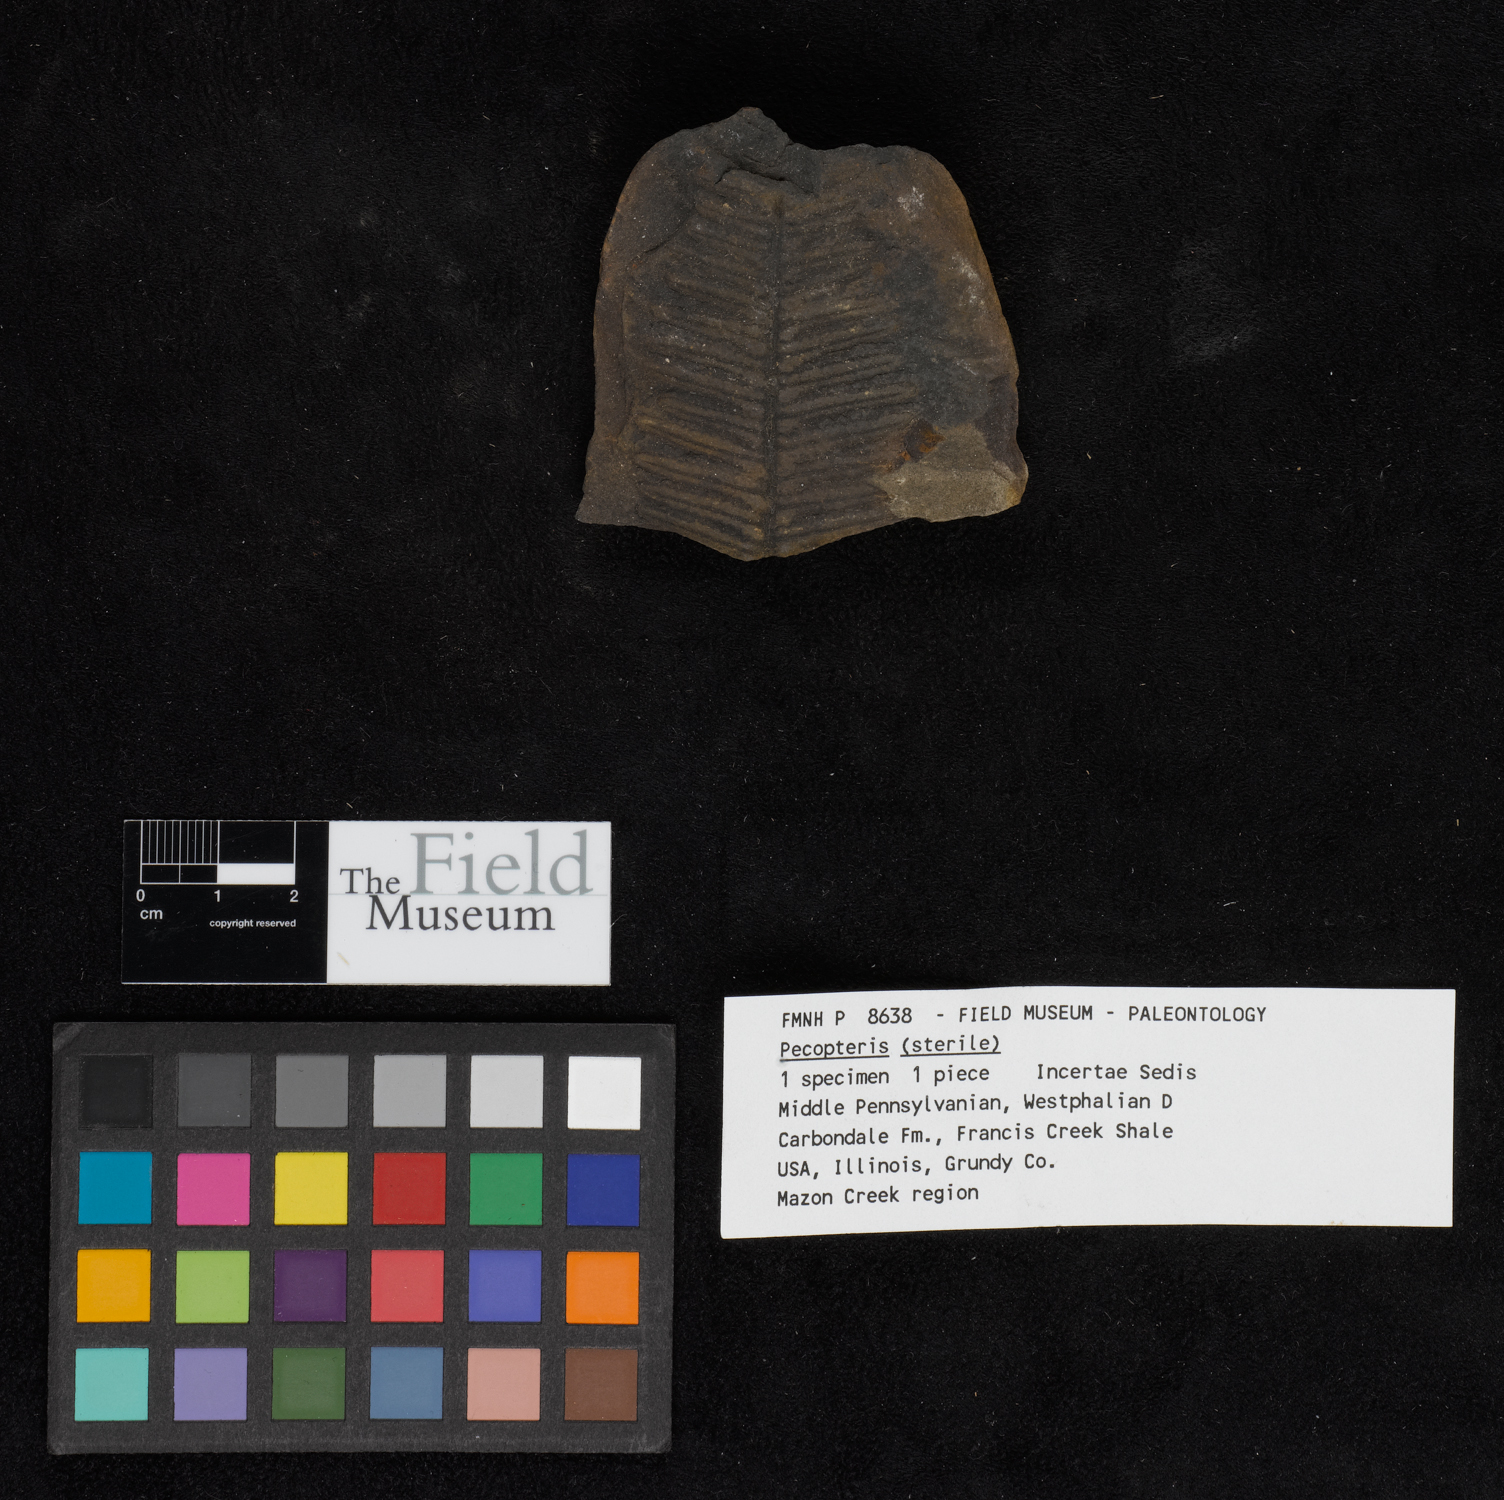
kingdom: Plantae
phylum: Tracheophyta
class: Polypodiopsida
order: Marattiales
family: Asterothecaceae
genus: Pecopteris
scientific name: Pecopteris
